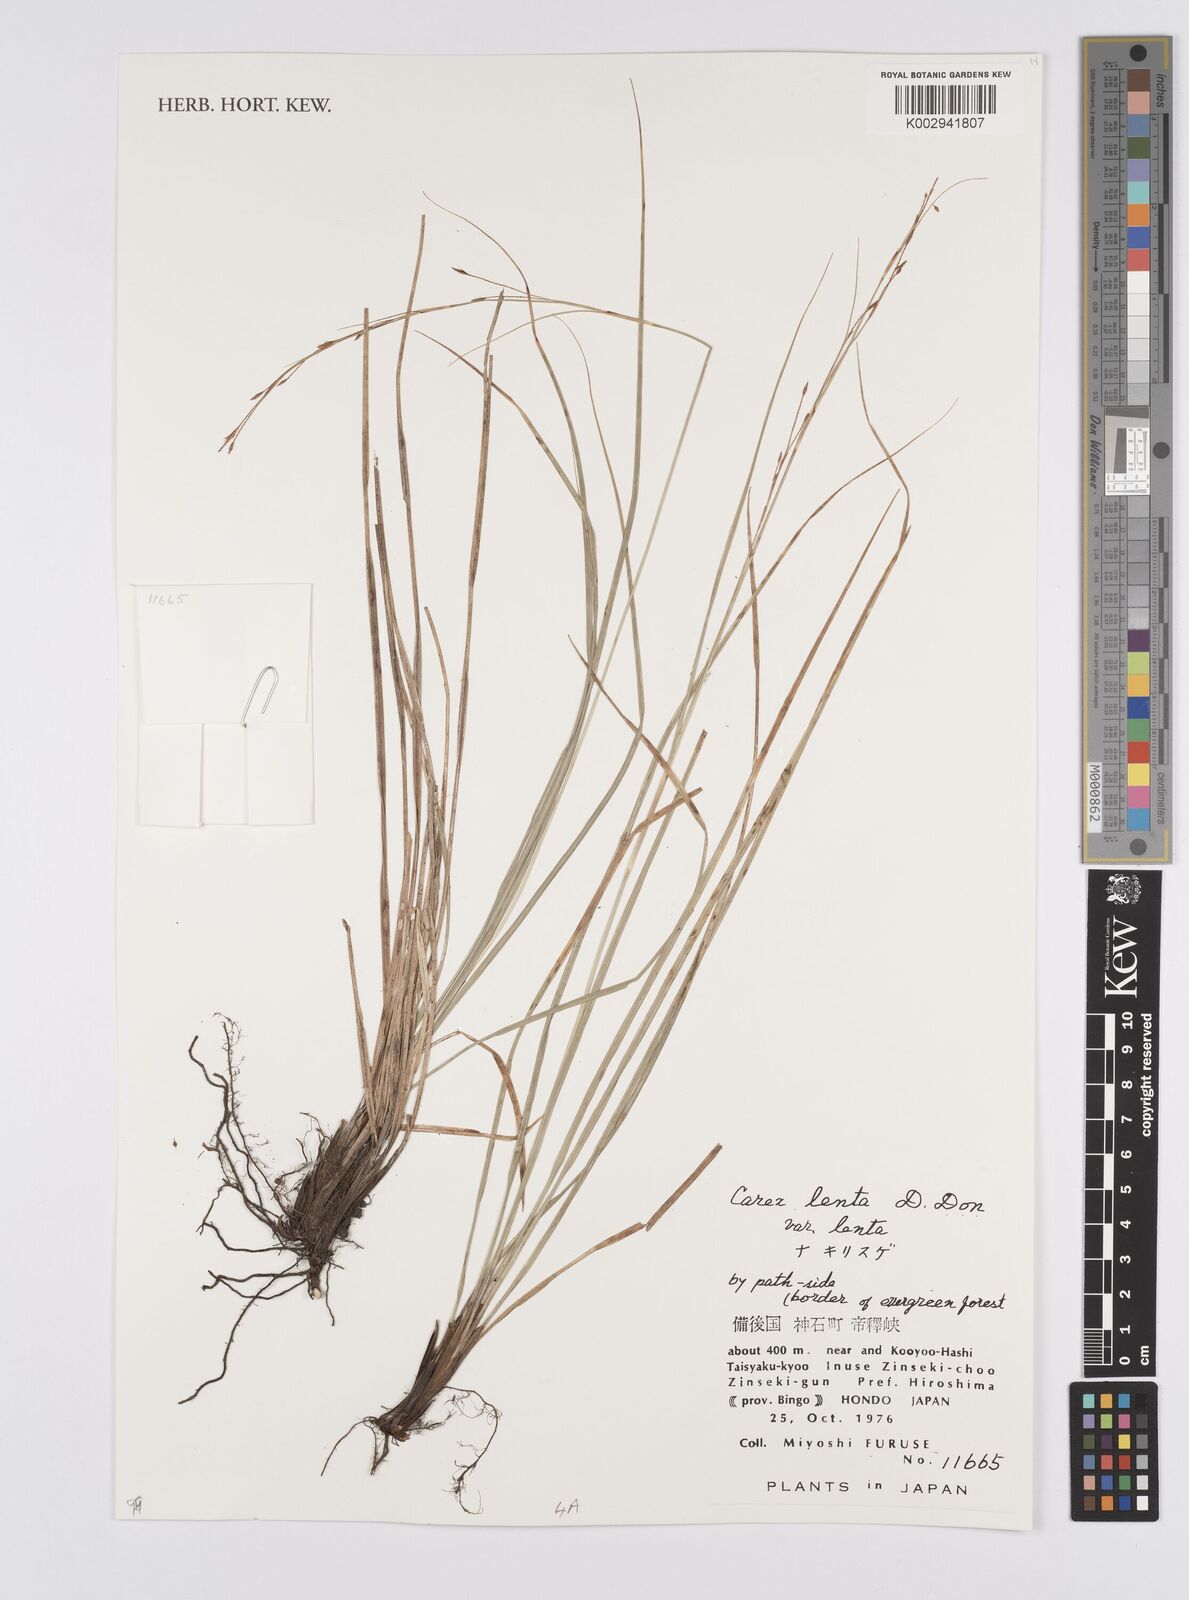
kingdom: Plantae
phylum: Tracheophyta
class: Liliopsida
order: Poales
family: Cyperaceae
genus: Carex
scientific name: Carex brunnea
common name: Greater brown sedge
